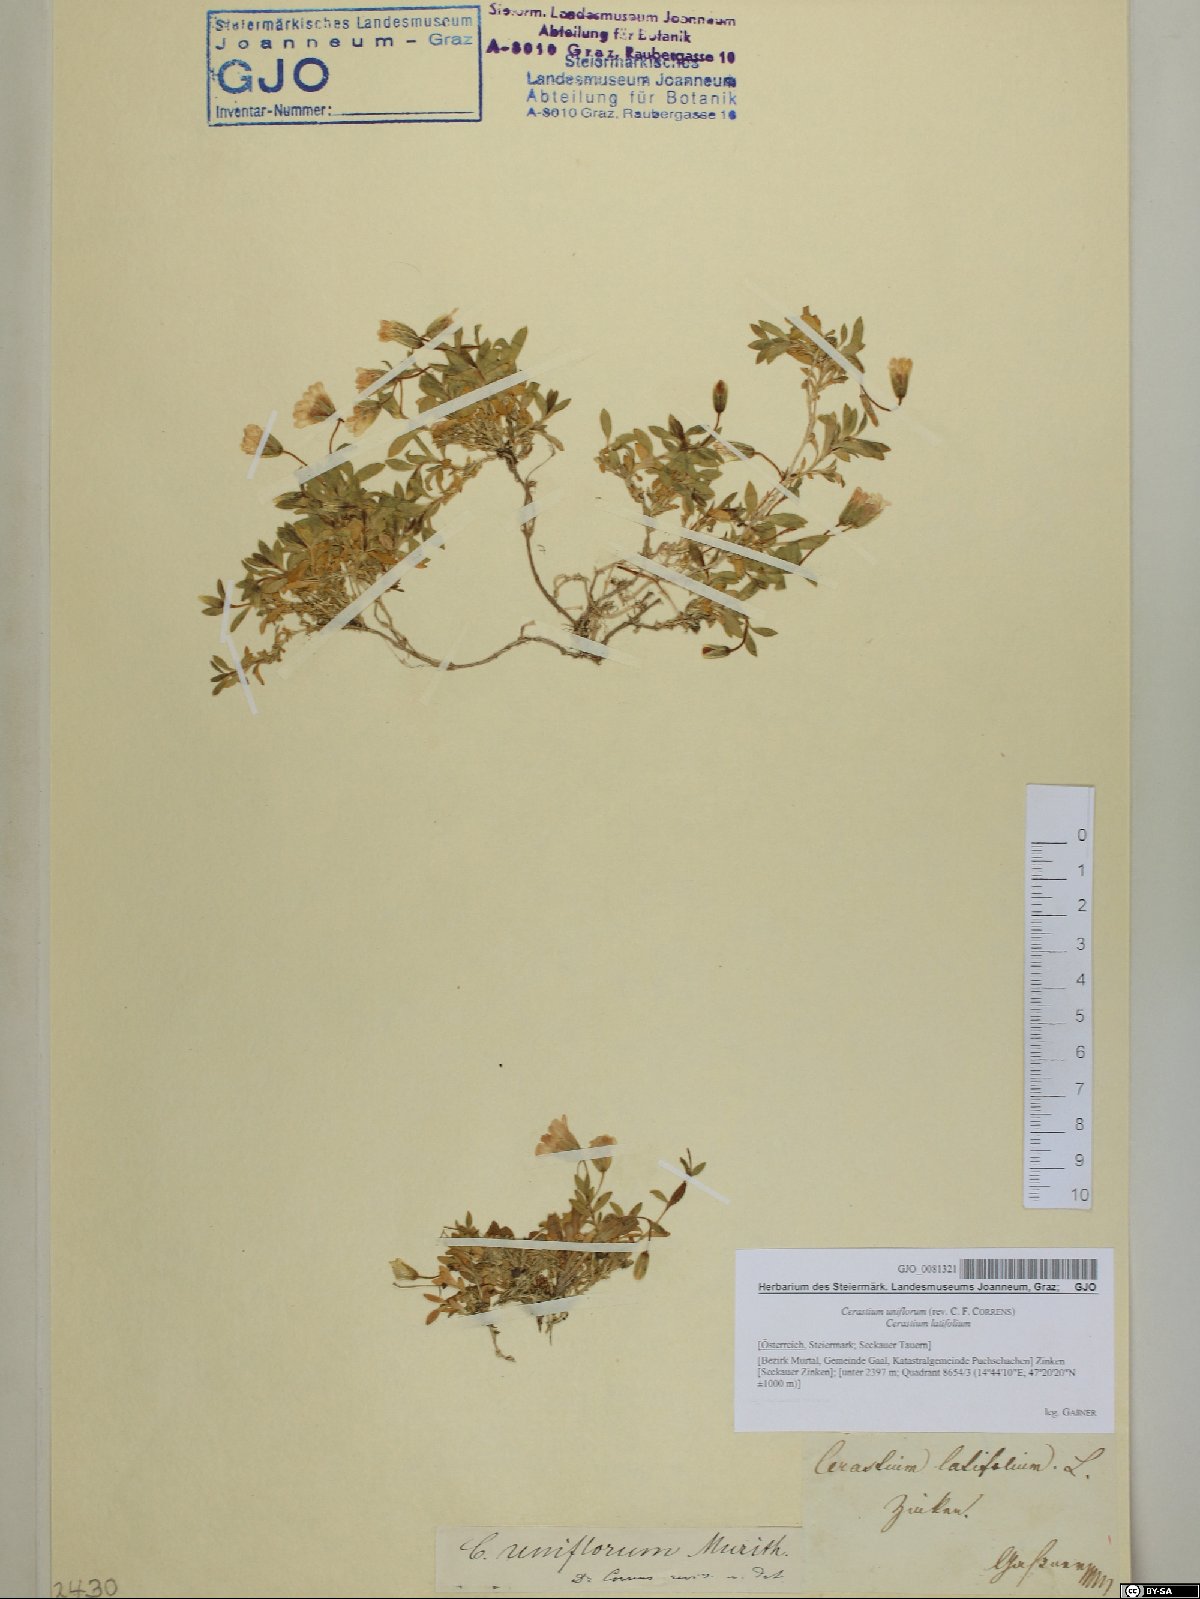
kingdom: Plantae
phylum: Tracheophyta
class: Magnoliopsida
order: Caryophyllales
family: Caryophyllaceae
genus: Cerastium
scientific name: Cerastium uniflorum
